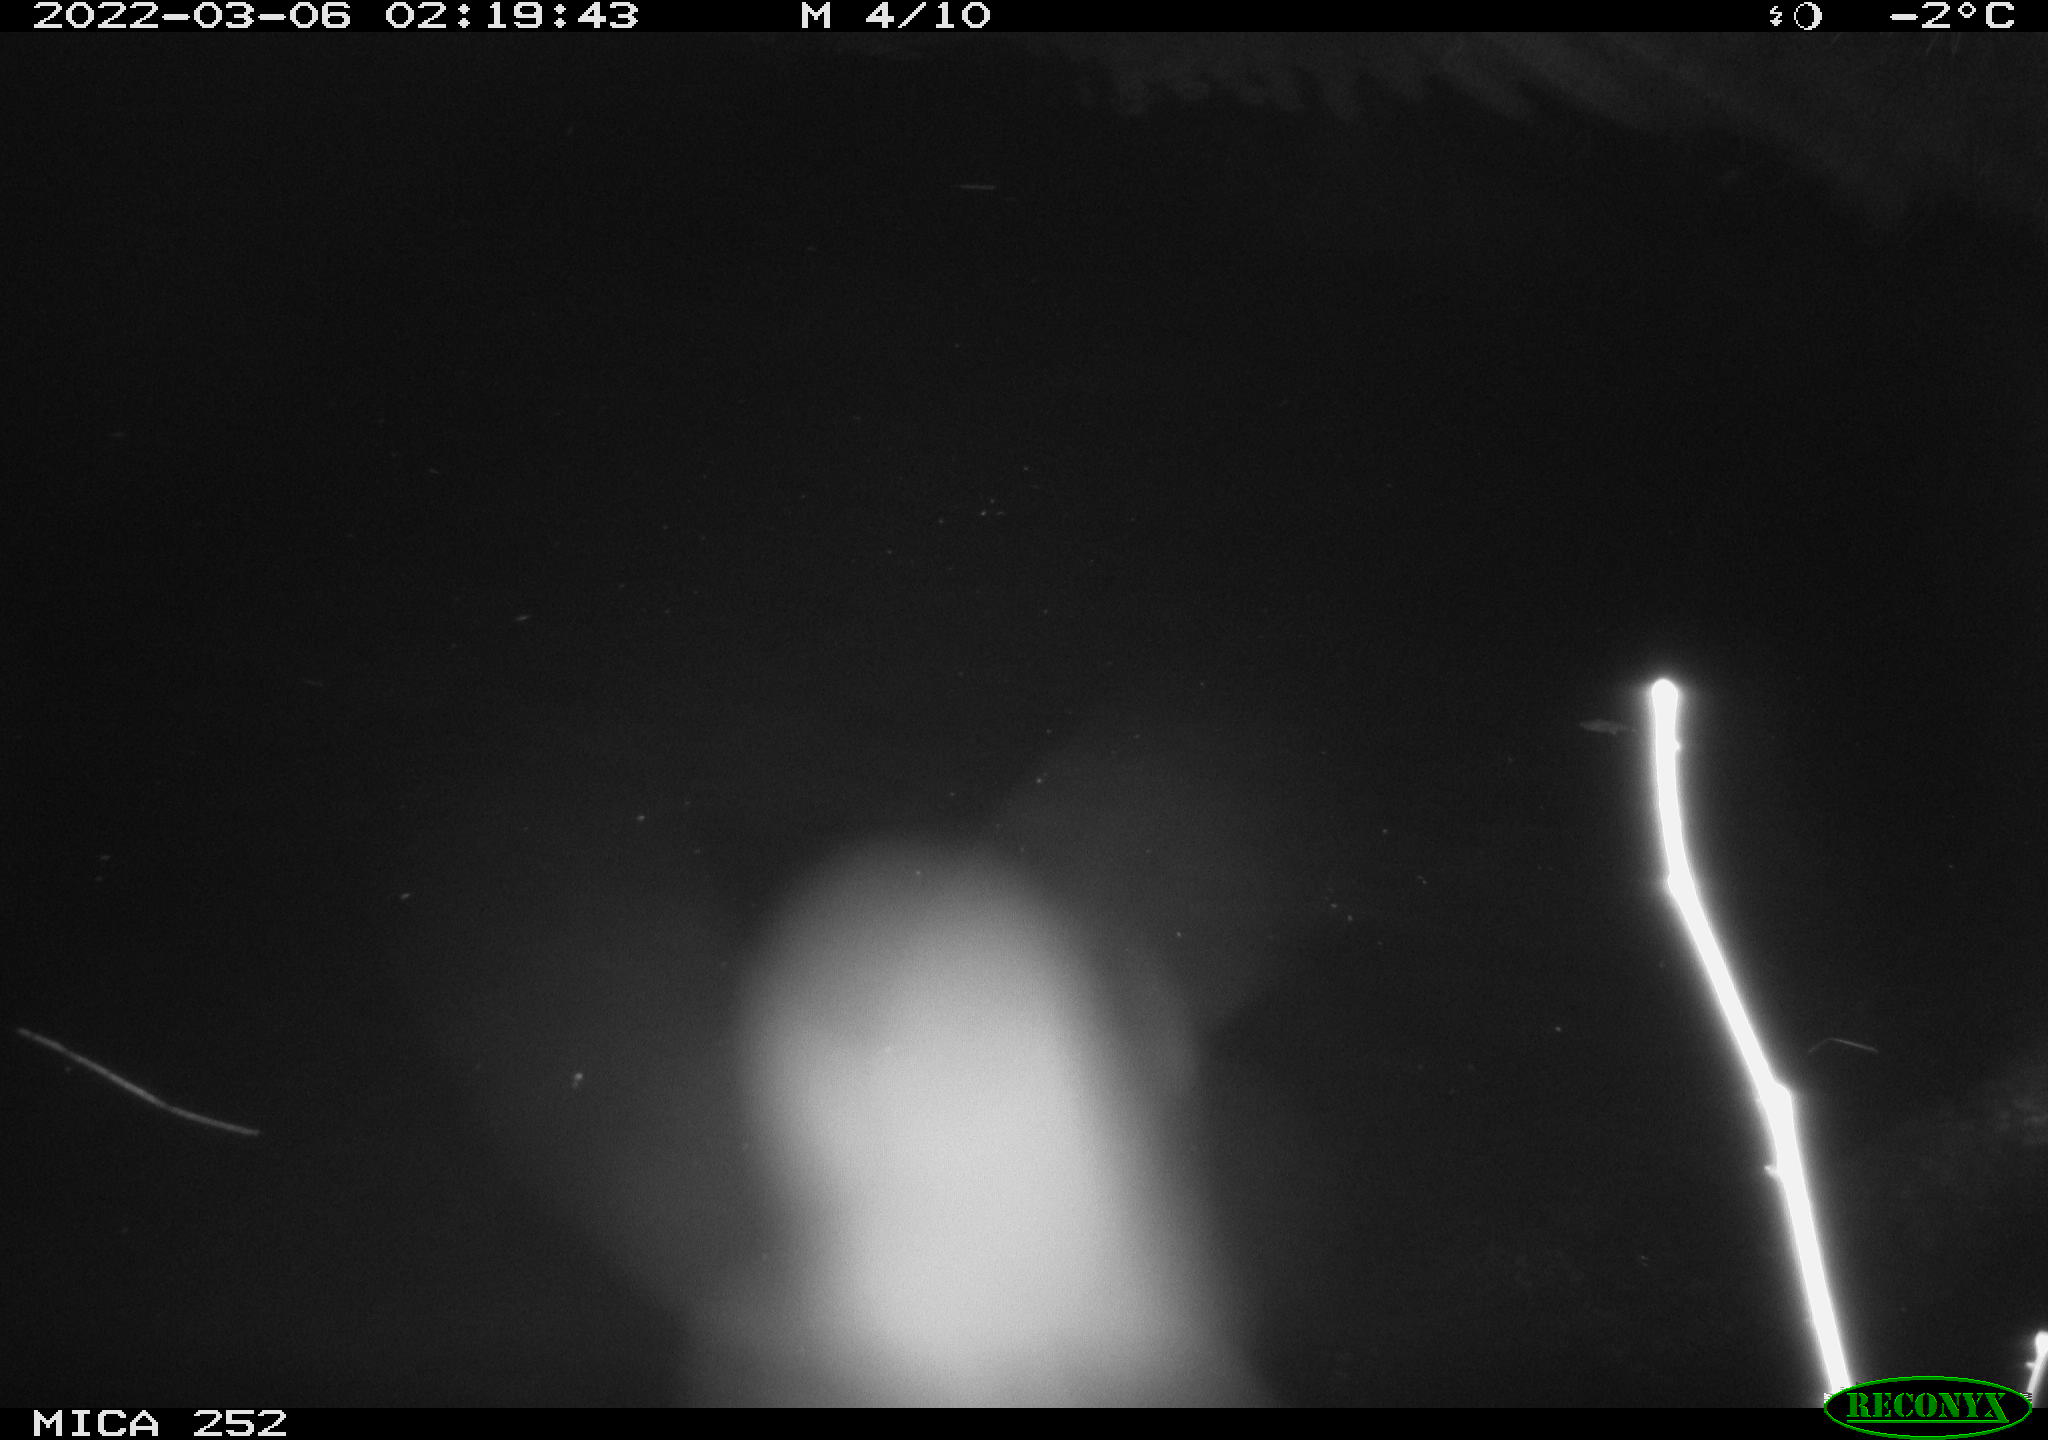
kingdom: Animalia
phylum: Chordata
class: Mammalia
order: Rodentia
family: Castoridae
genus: Castor
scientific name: Castor fiber
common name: Eurasian beaver
